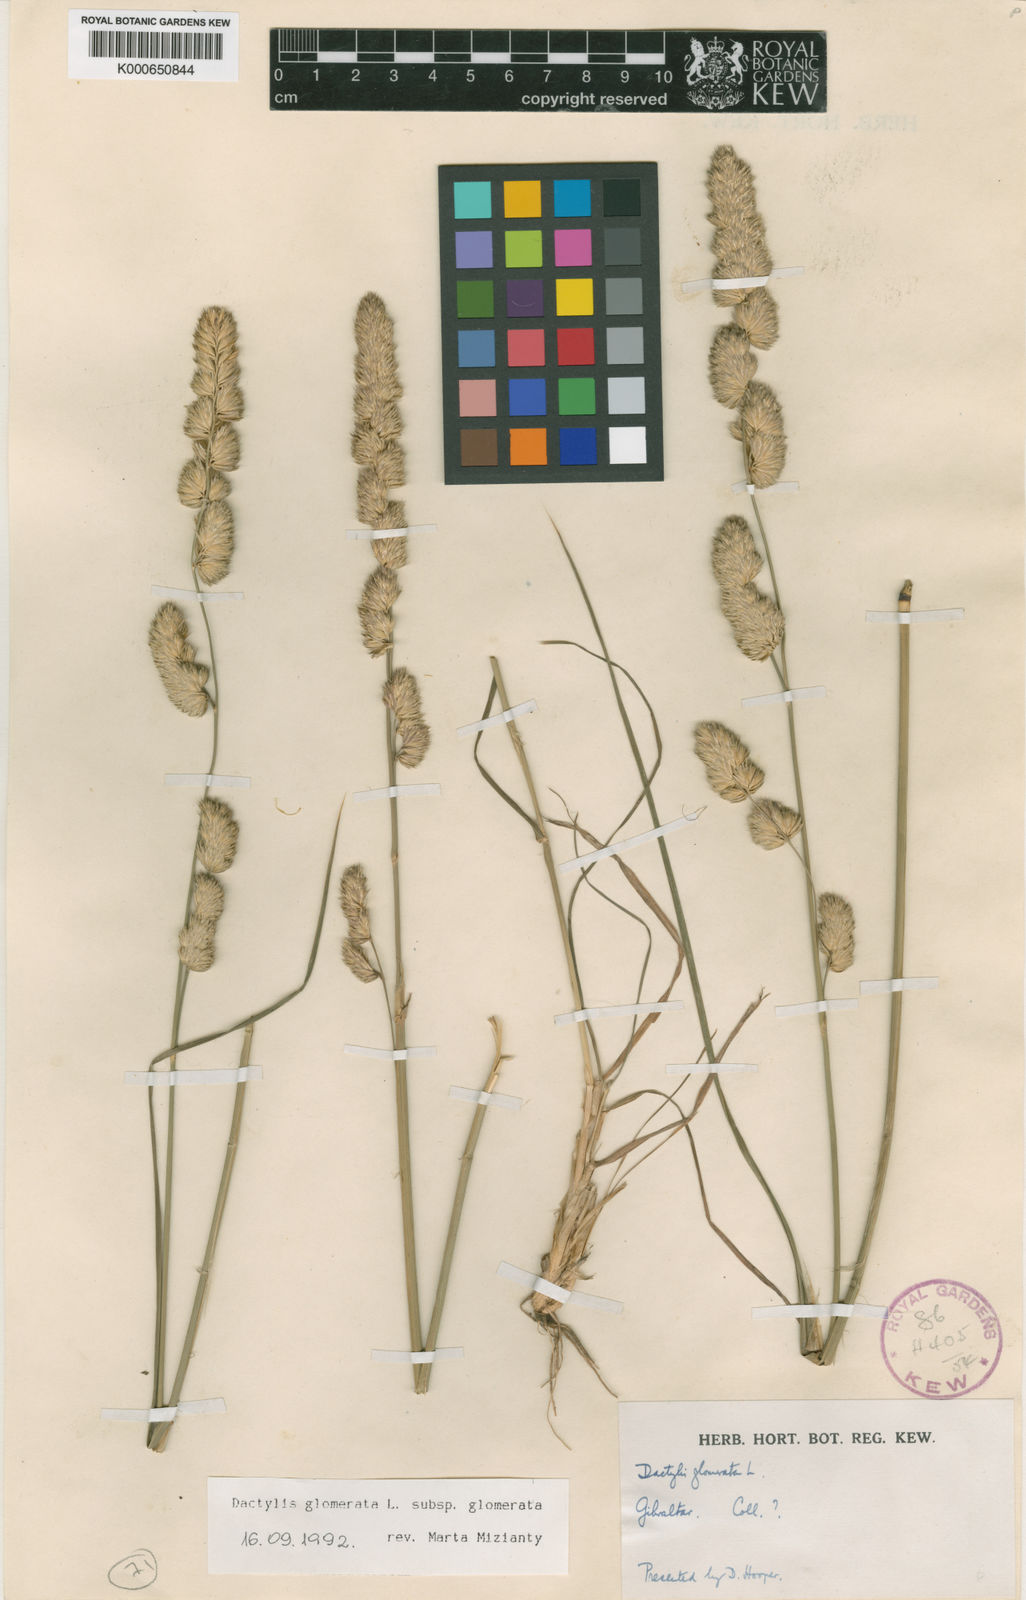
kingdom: Plantae
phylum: Tracheophyta
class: Liliopsida
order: Poales
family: Poaceae
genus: Dactylis
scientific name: Dactylis glomerata
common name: Orchardgrass
